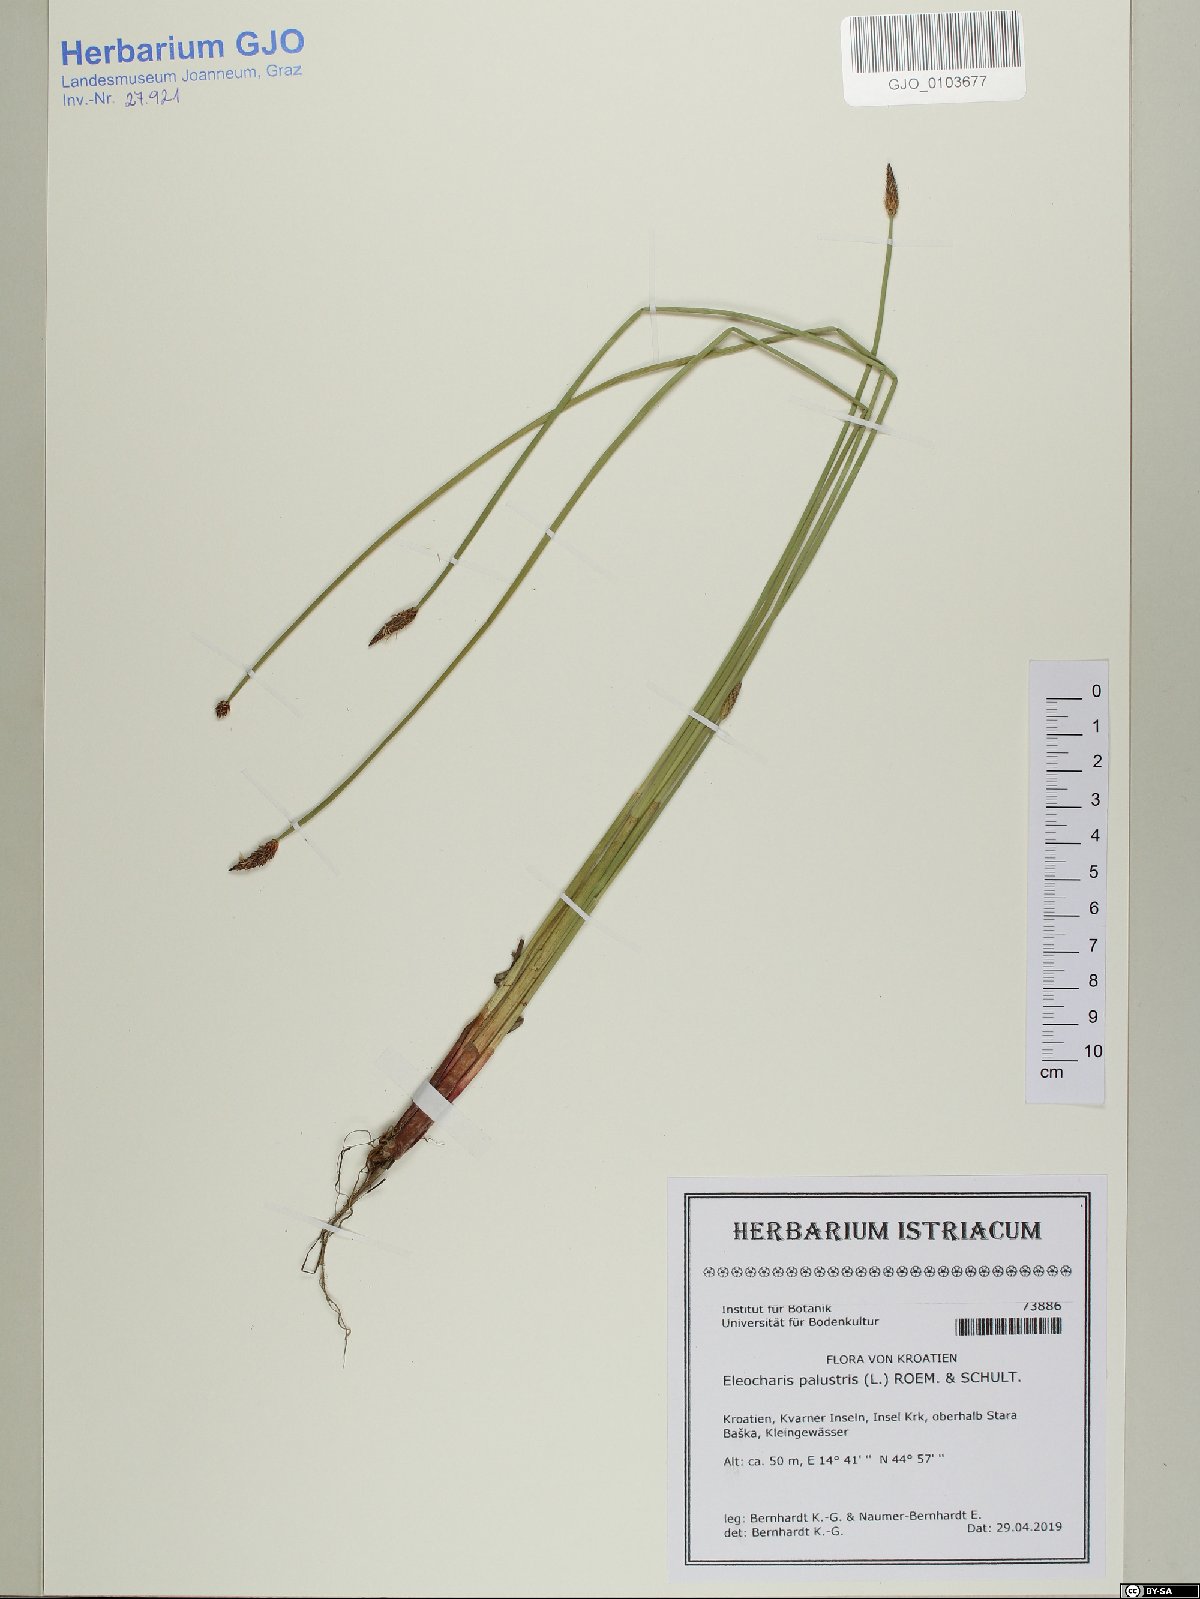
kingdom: Plantae
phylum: Tracheophyta
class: Liliopsida
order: Poales
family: Cyperaceae
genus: Eleocharis
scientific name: Eleocharis palustris
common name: Common spike-rush
